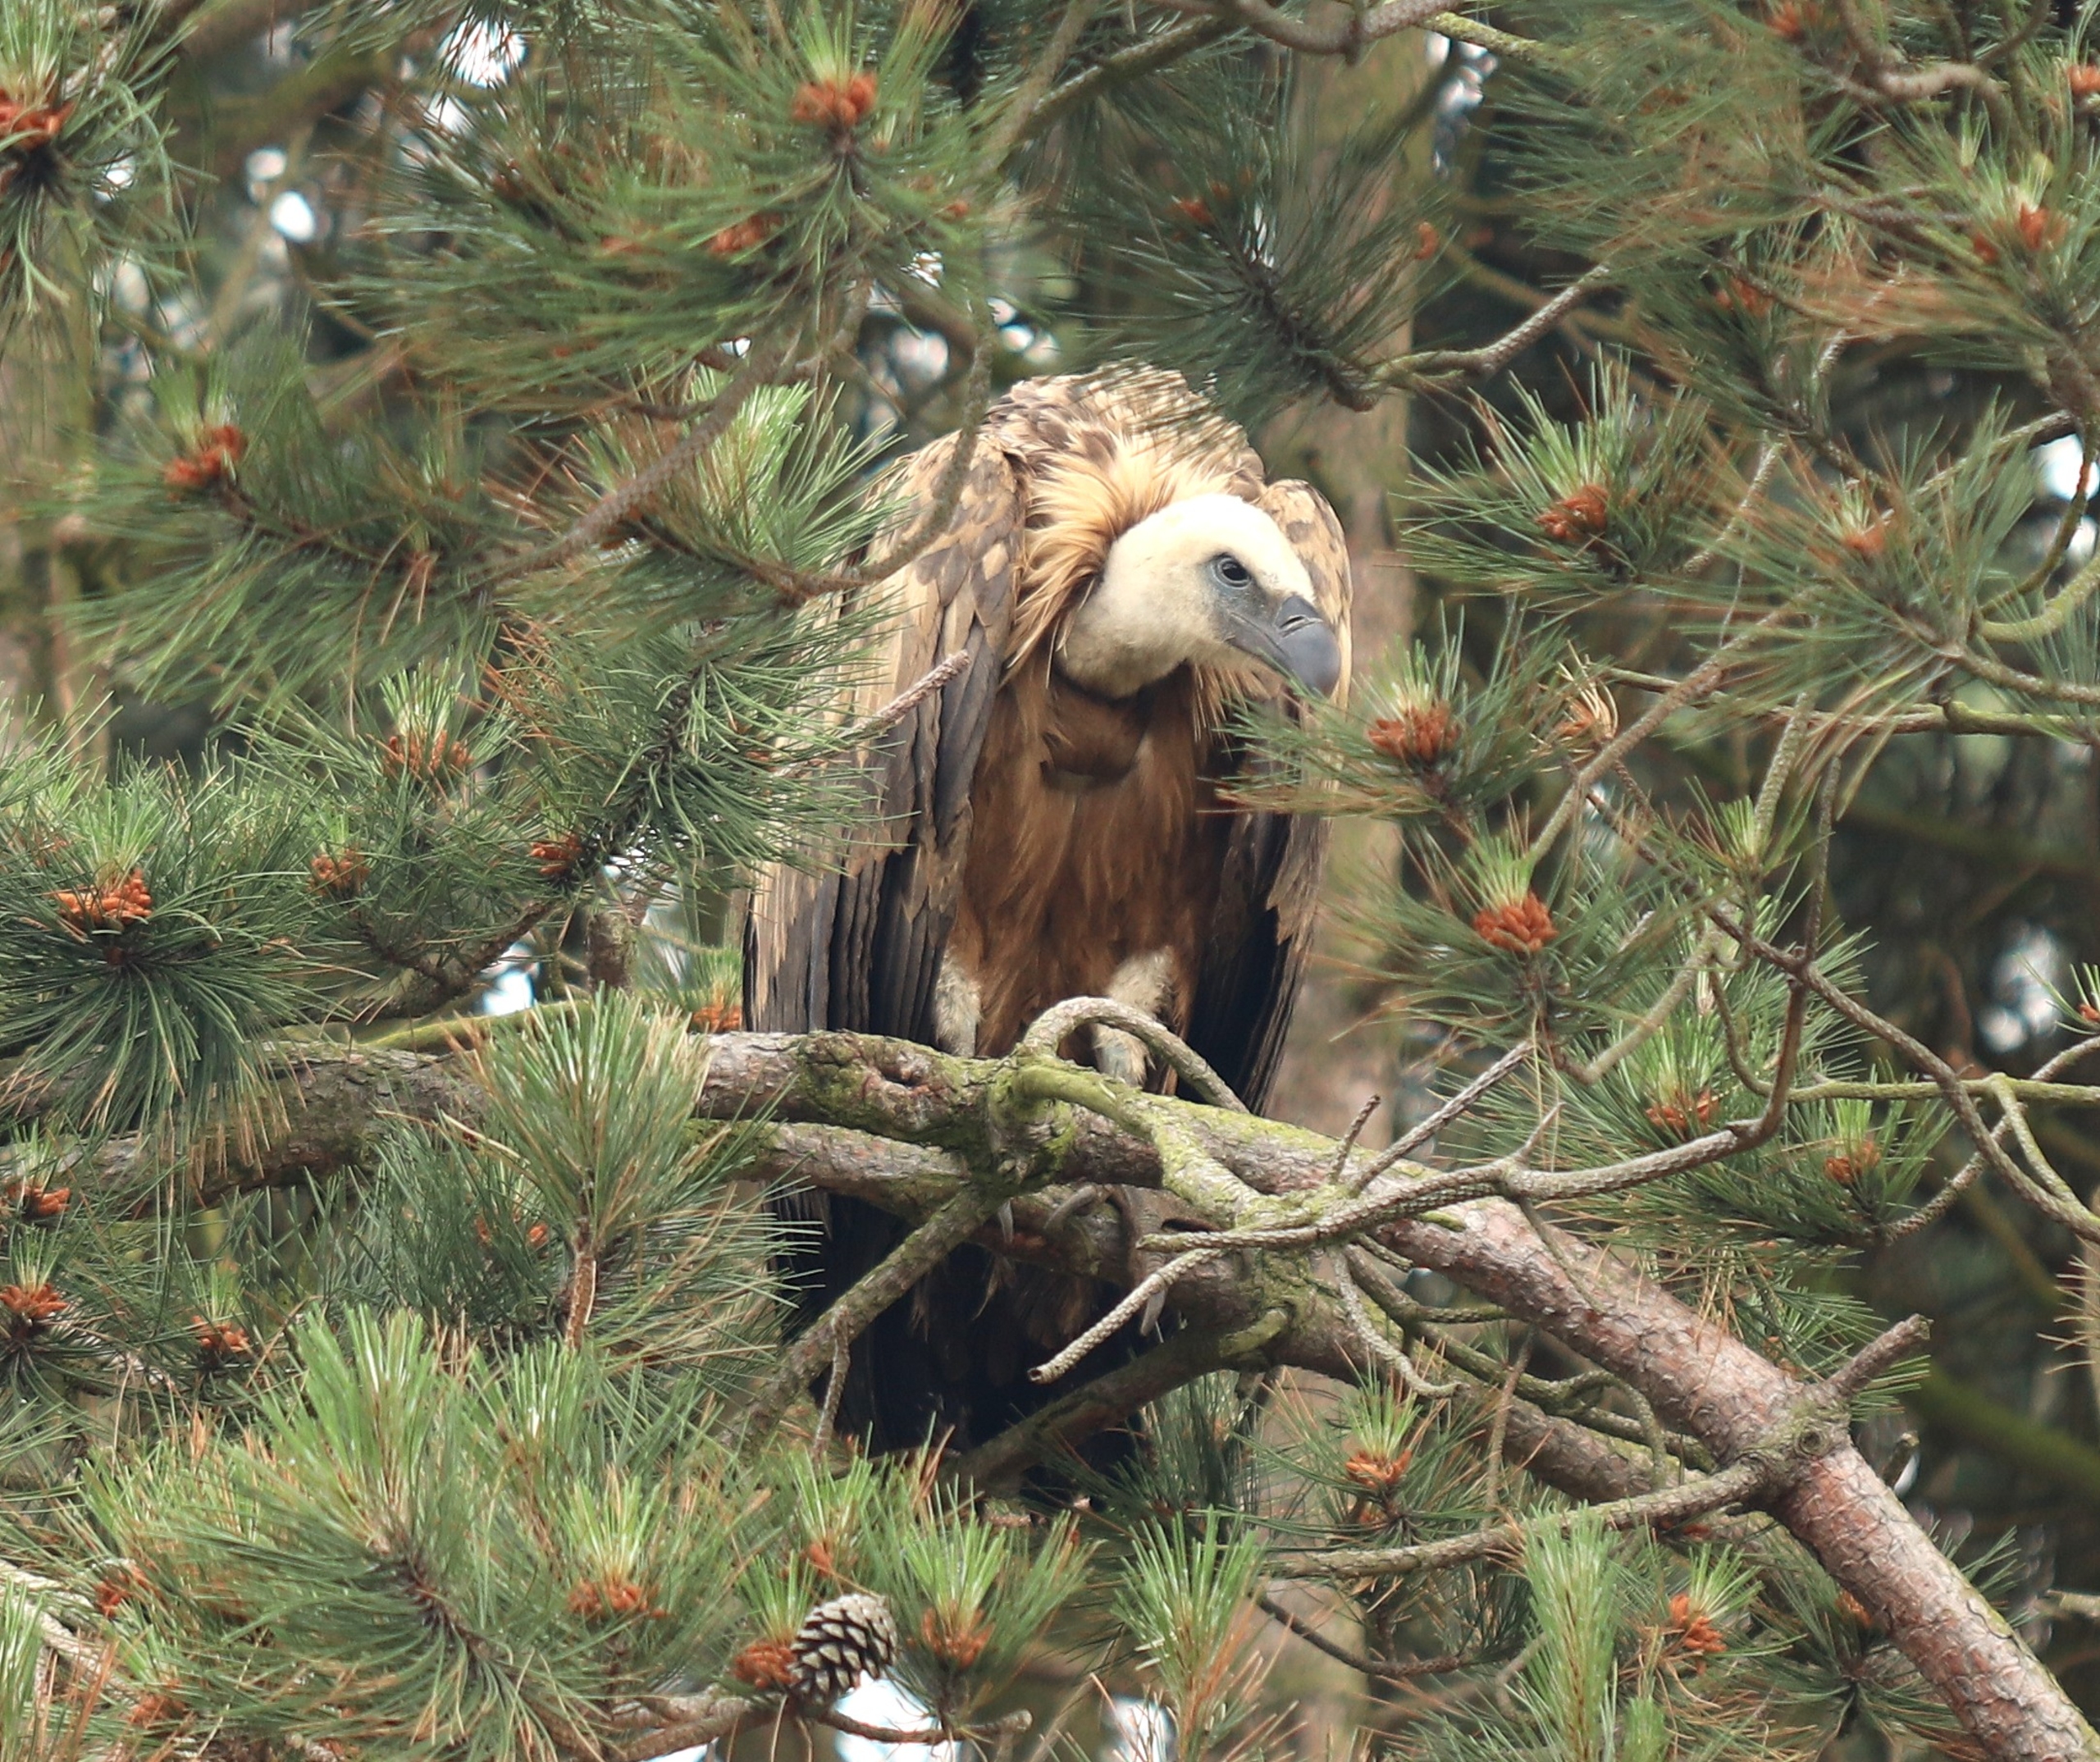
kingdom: Animalia
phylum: Chordata
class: Aves
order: Accipitriformes
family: Accipitridae
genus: Gyps
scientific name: Gyps fulvus
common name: Gåsegrib
